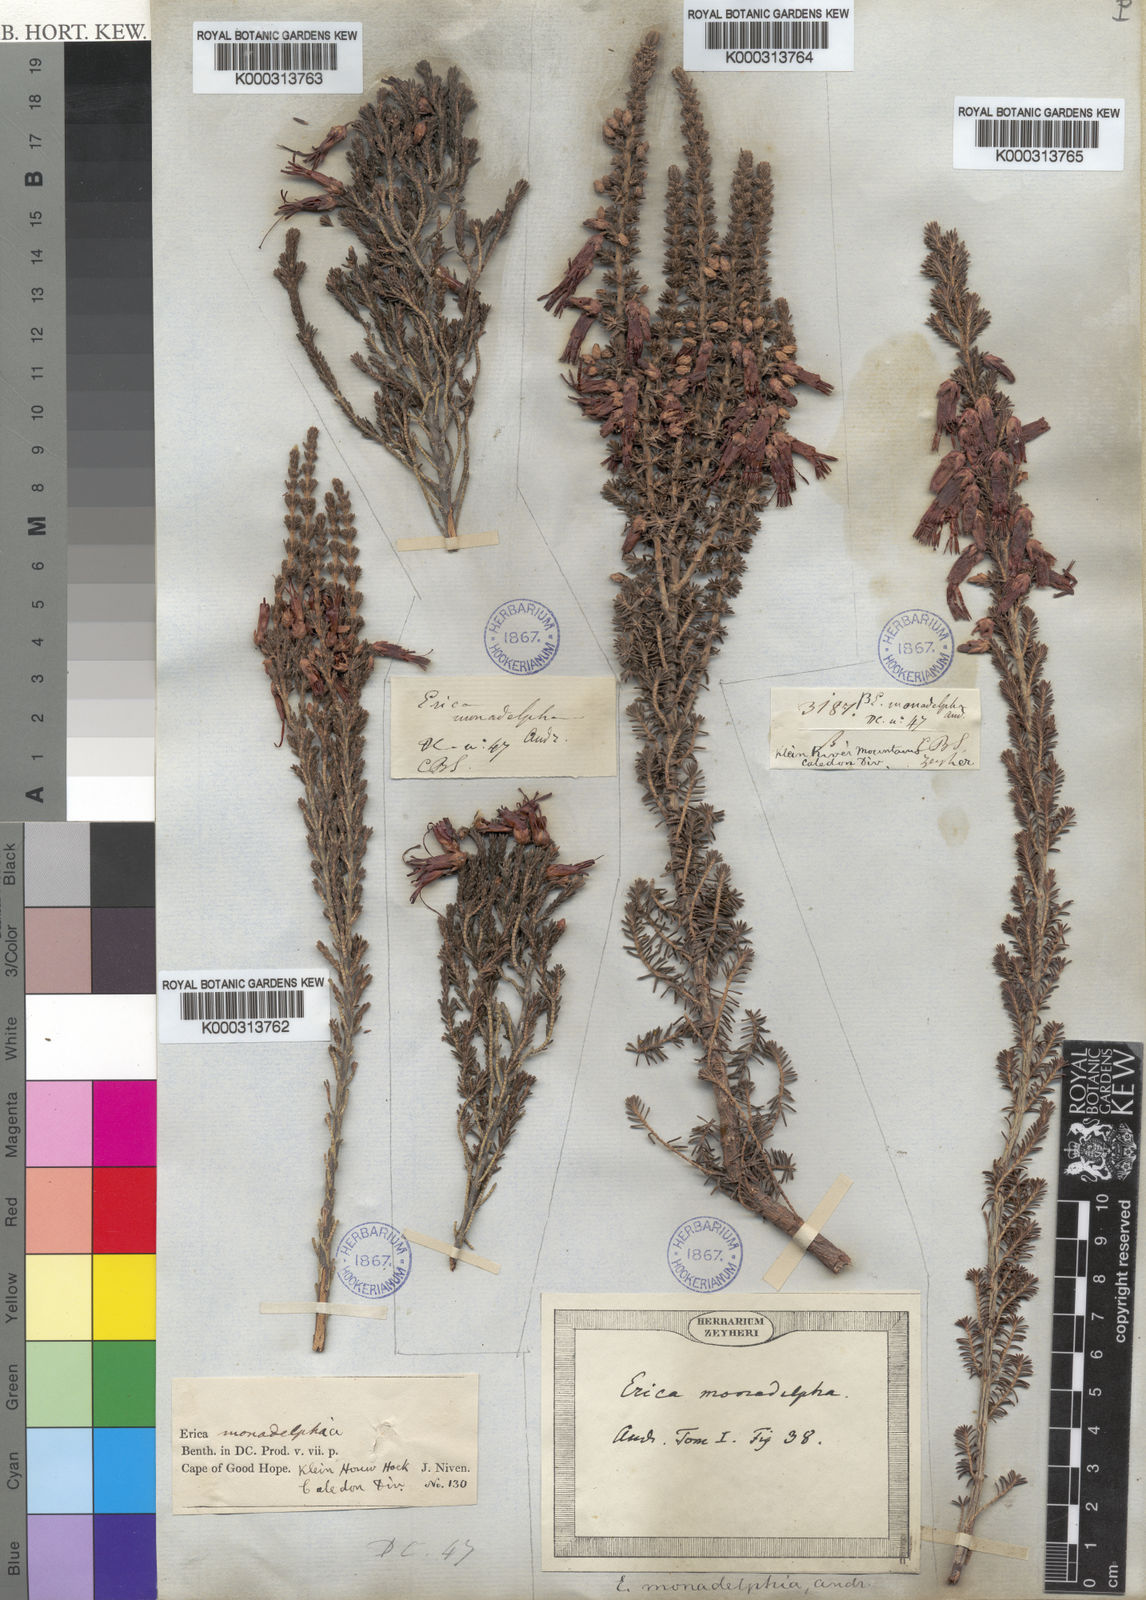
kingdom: Plantae
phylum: Tracheophyta
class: Magnoliopsida
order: Ericales
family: Ericaceae
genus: Erica
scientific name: Erica
